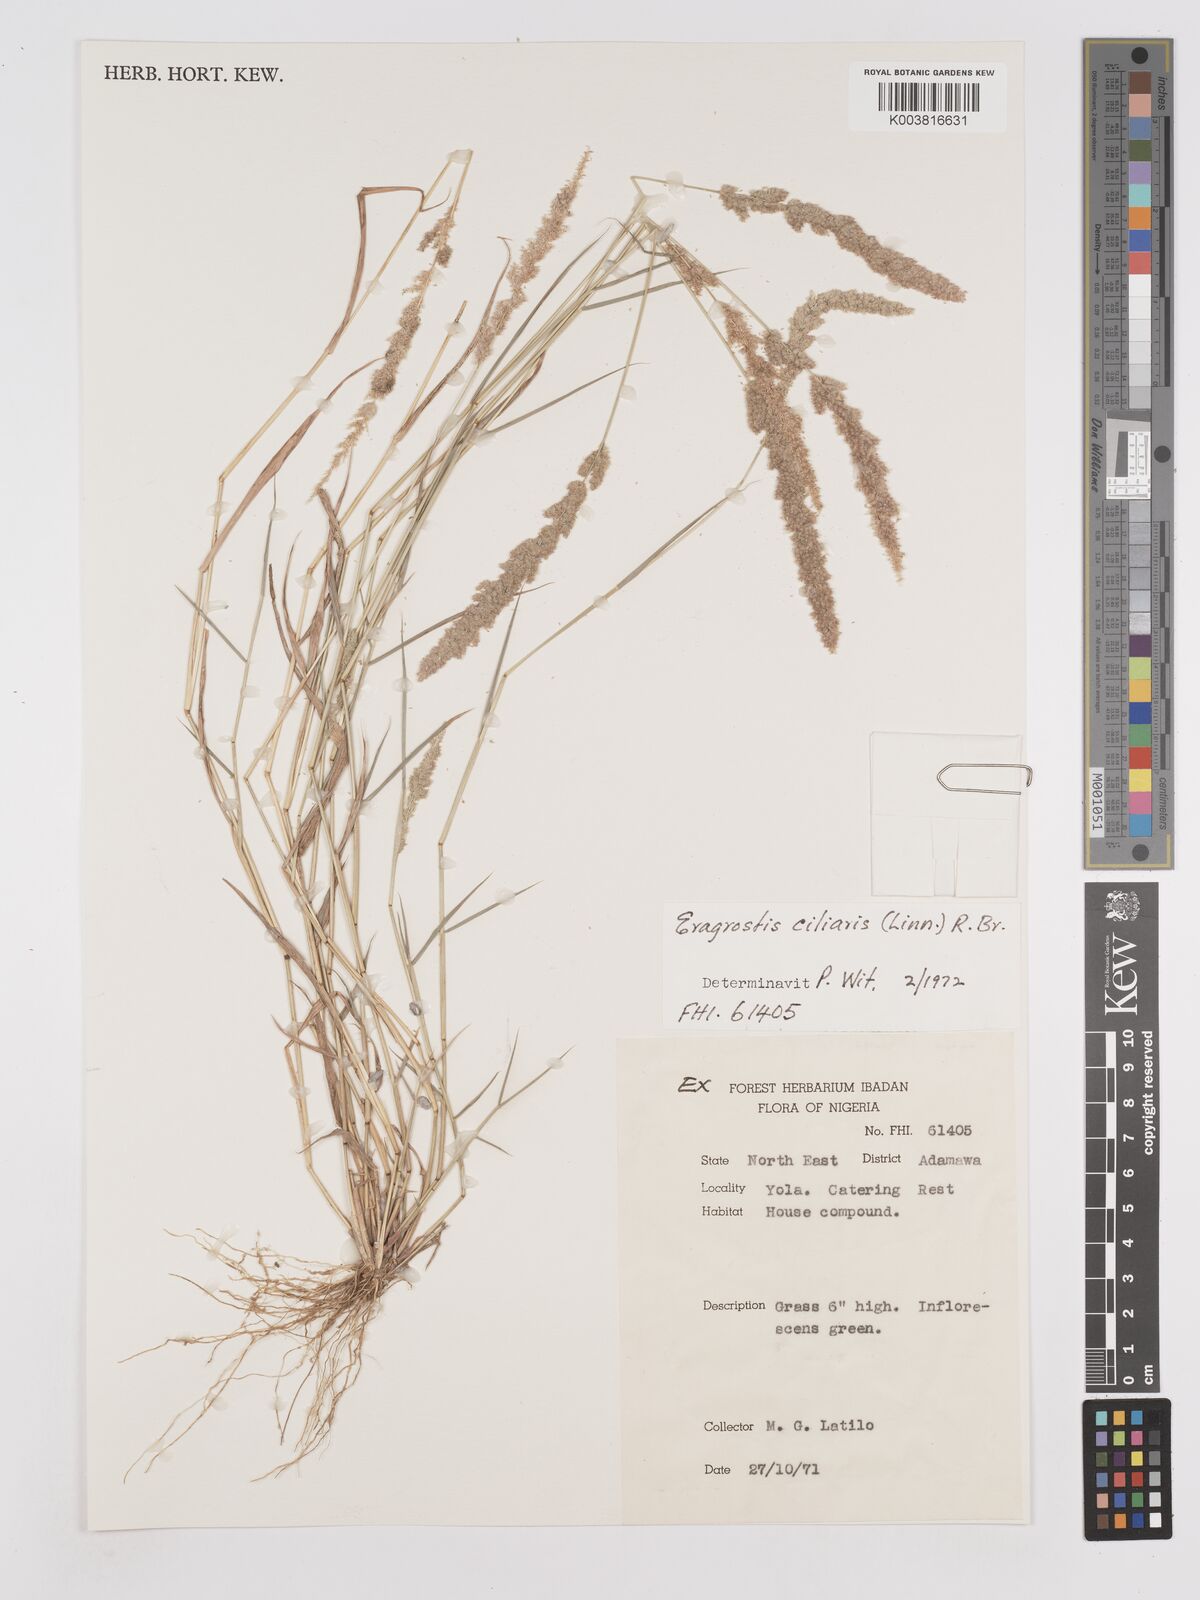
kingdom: Plantae
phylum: Tracheophyta
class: Liliopsida
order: Poales
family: Poaceae
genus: Eragrostis
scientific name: Eragrostis ciliaris
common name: Gophertail lovegrass
